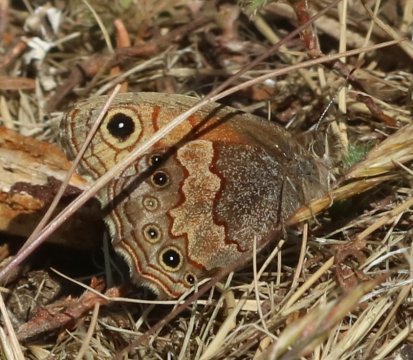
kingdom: Animalia
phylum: Arthropoda
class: Insecta
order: Lepidoptera
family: Nymphalidae
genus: Paramecera
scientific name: Paramecera xicaque
